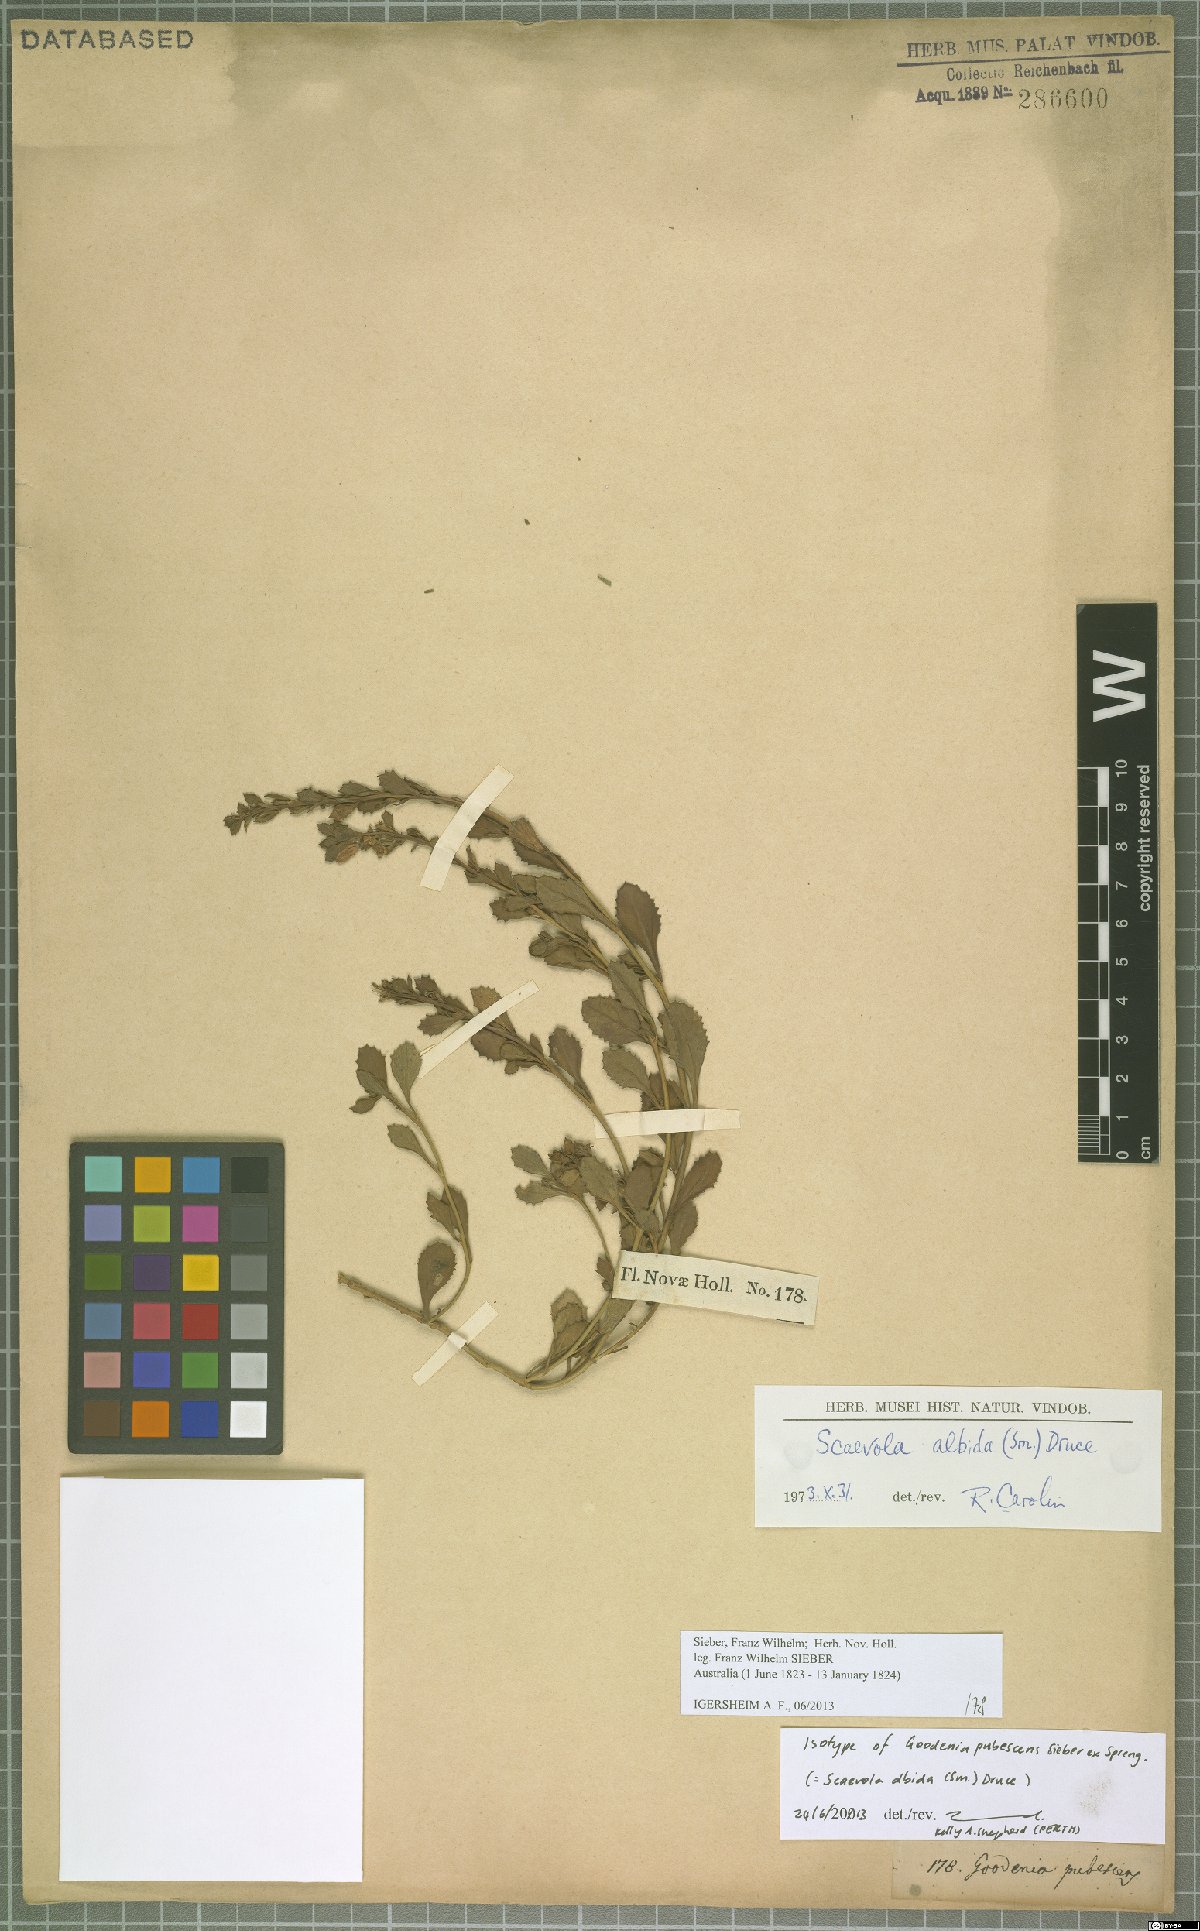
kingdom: Plantae
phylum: Tracheophyta
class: Magnoliopsida
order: Asterales
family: Goodeniaceae
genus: Scaevola
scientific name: Scaevola albida
